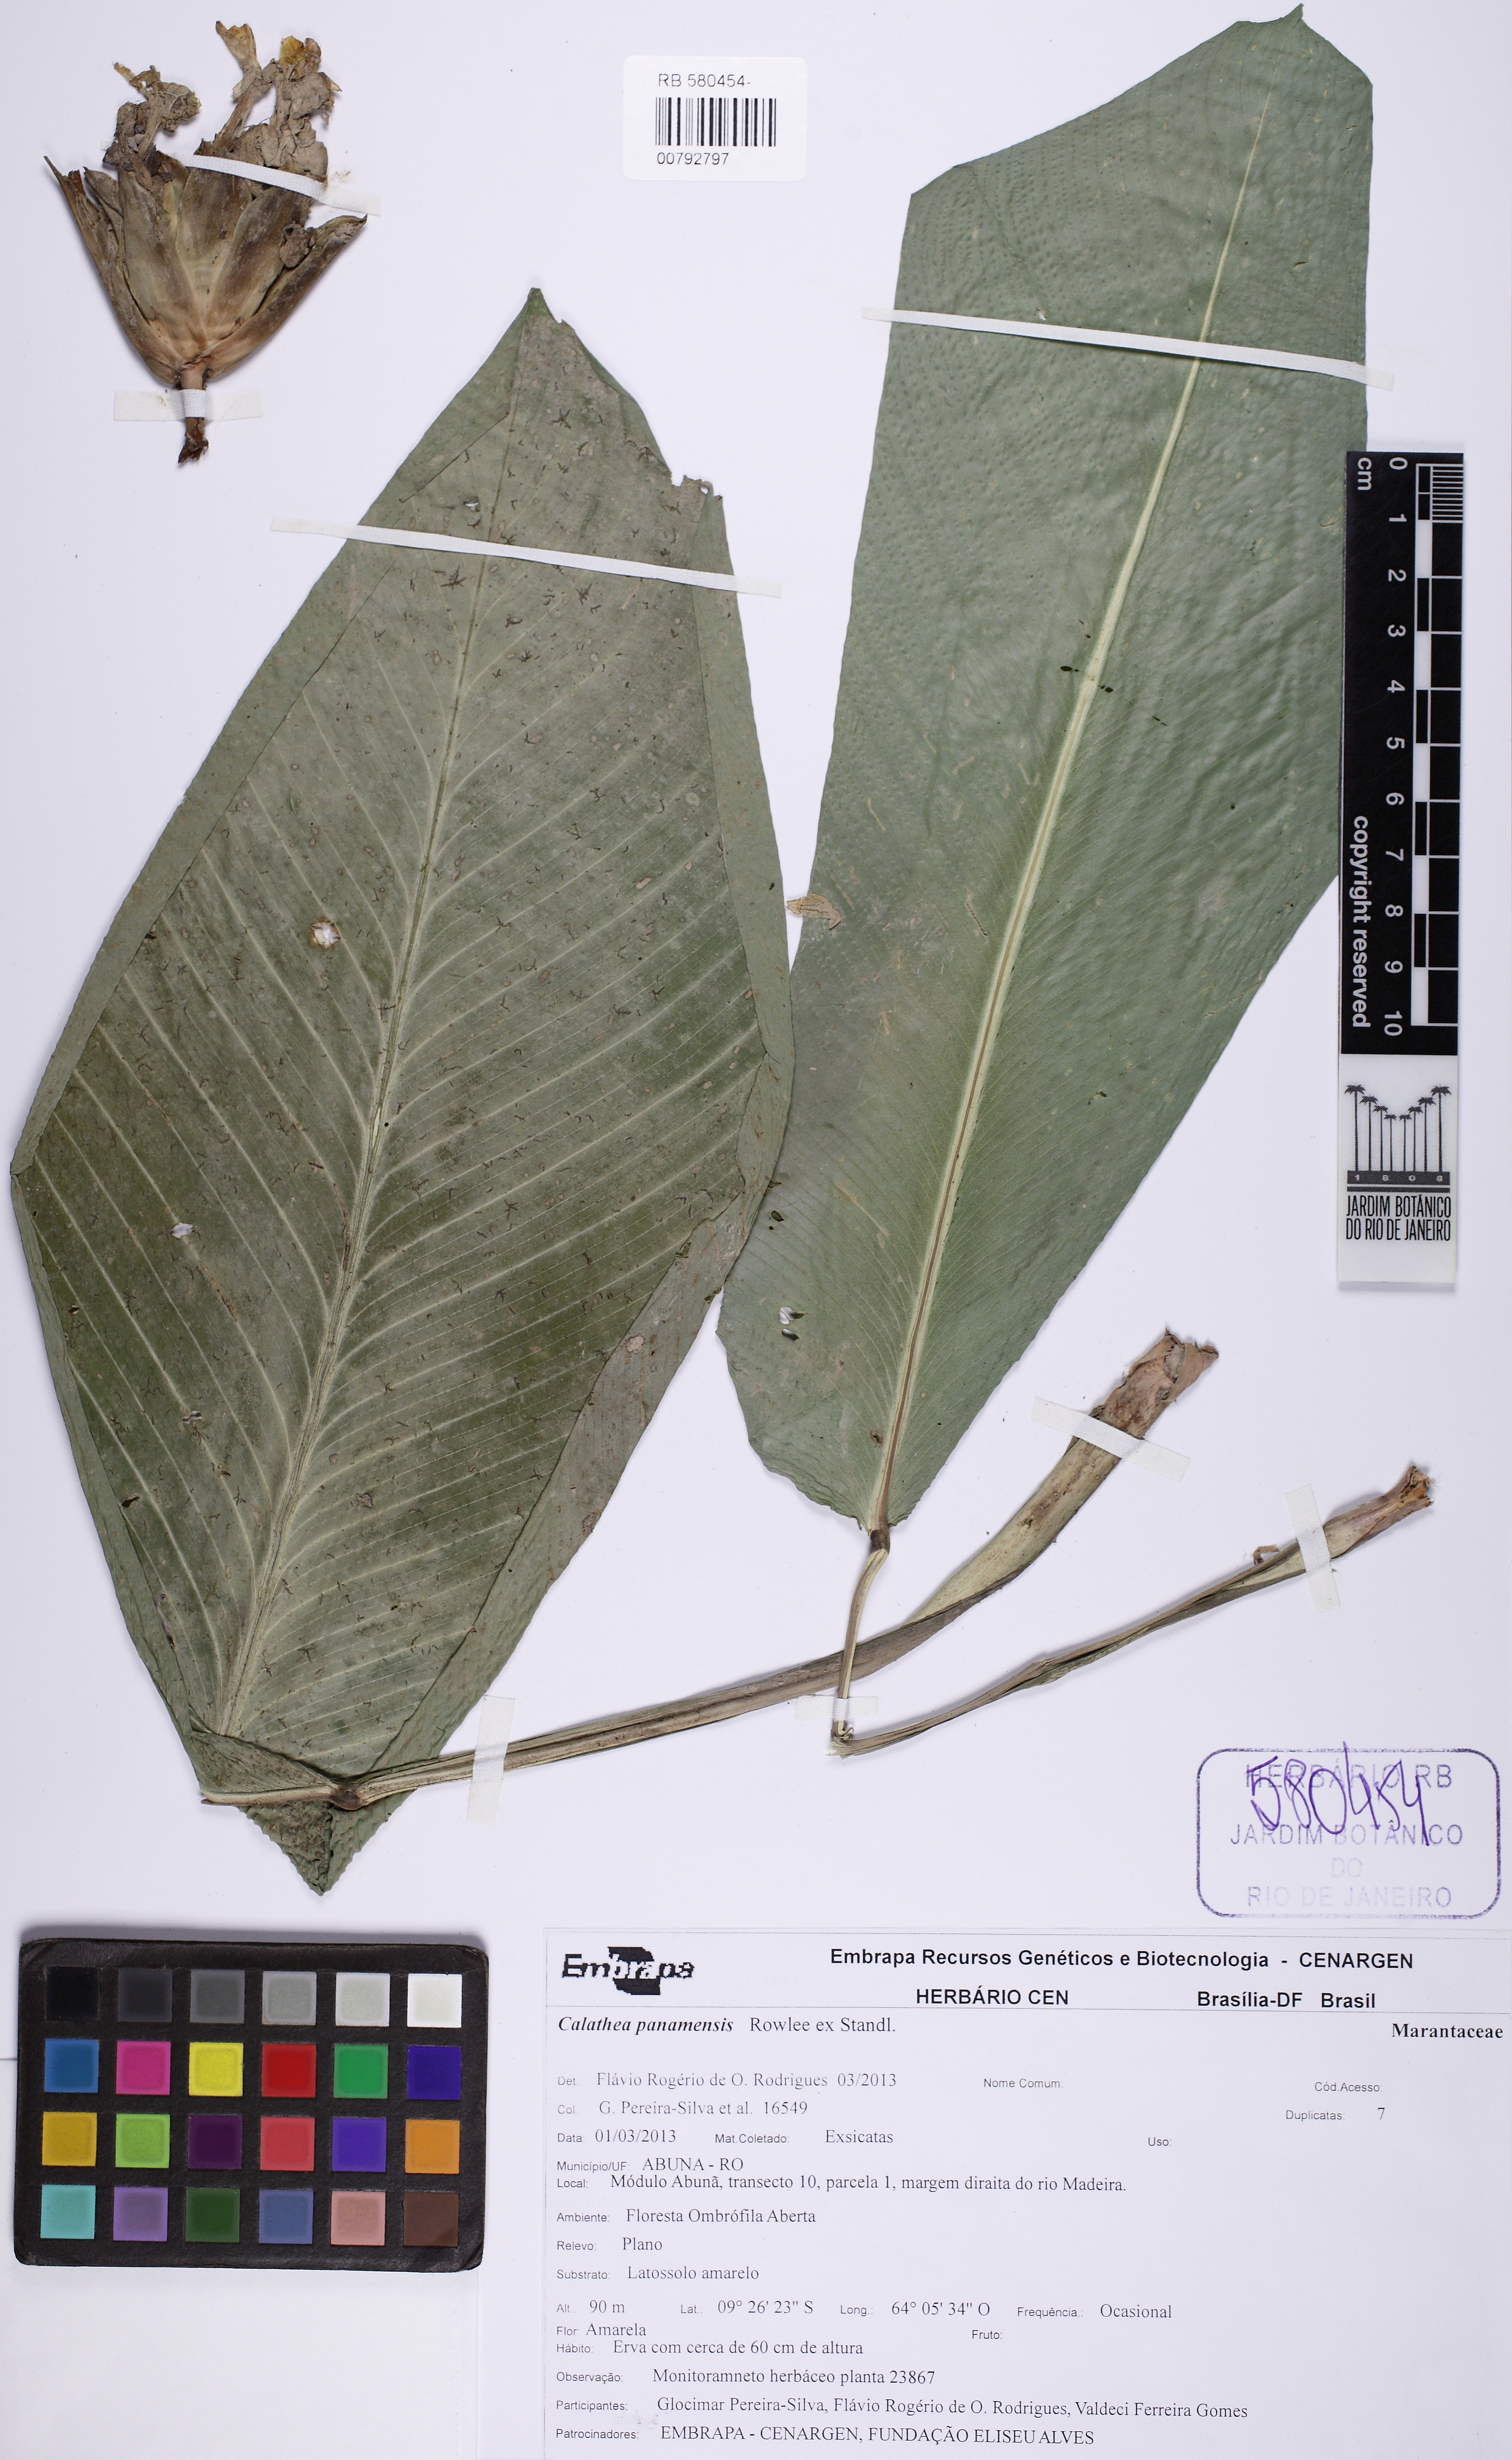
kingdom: Plantae
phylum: Tracheophyta
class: Liliopsida
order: Zingiberales
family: Marantaceae
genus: Calathea
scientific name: Calathea
